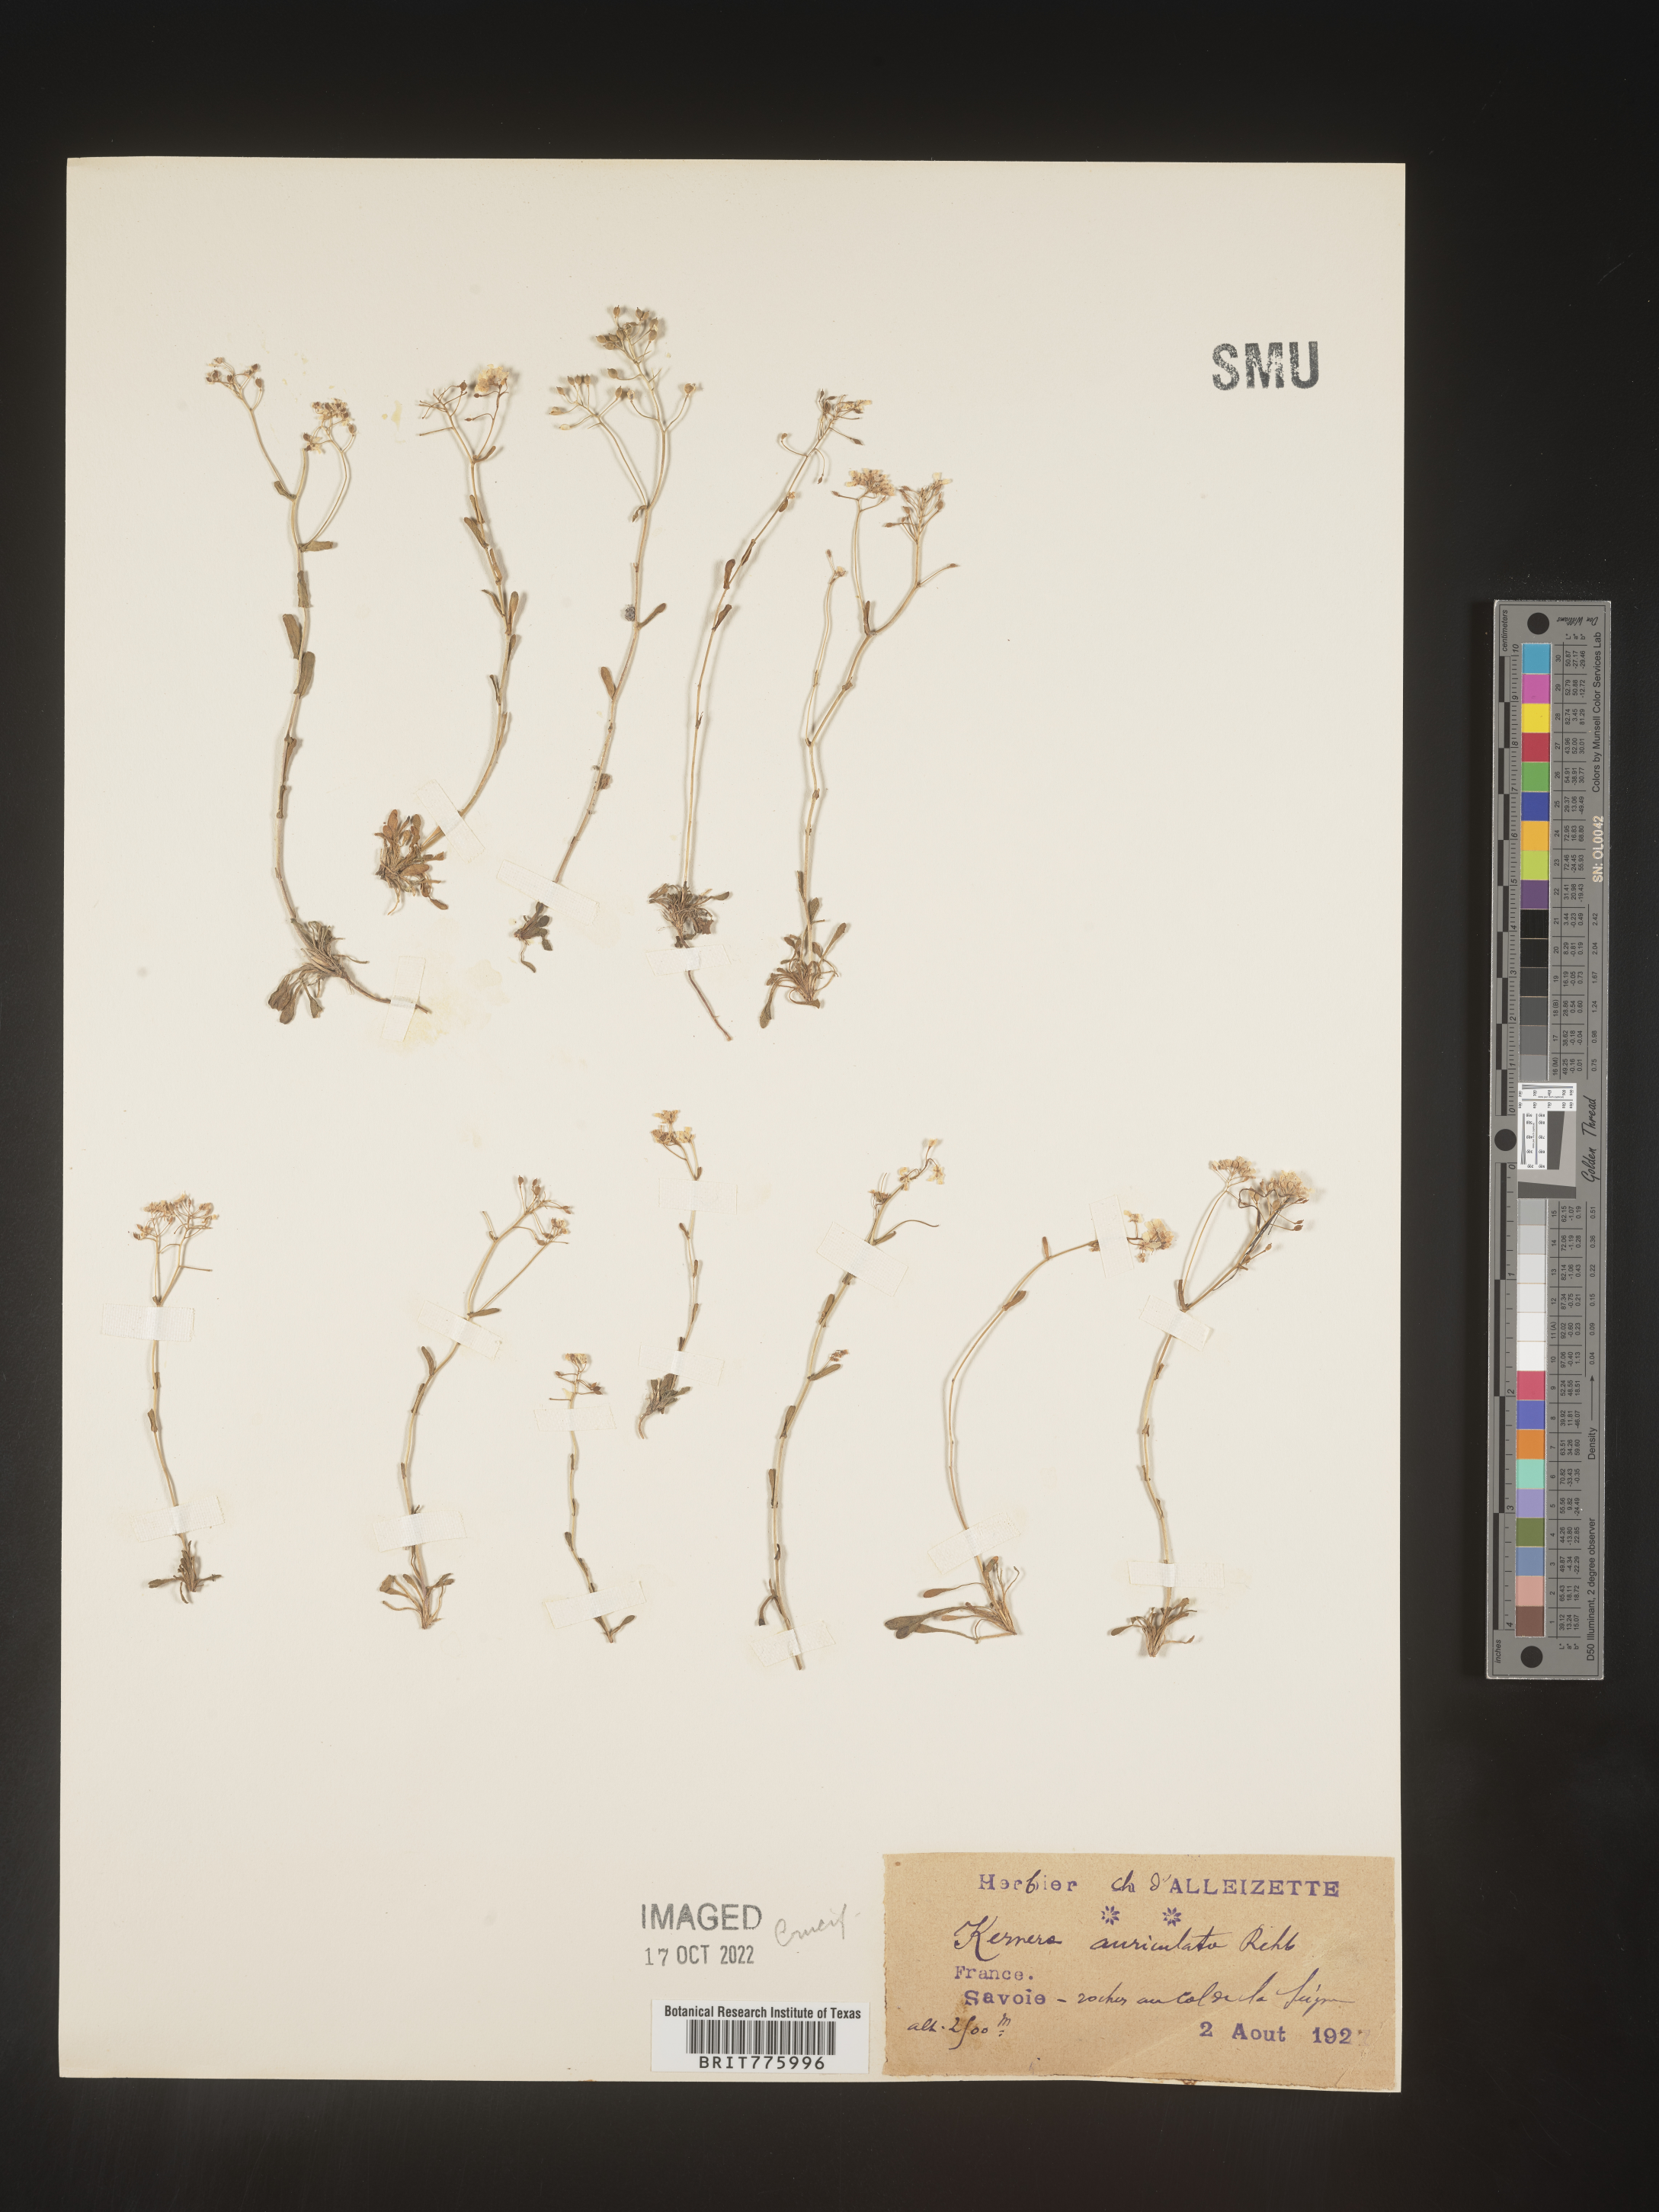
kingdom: Plantae
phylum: Tracheophyta
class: Magnoliopsida
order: Brassicales
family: Brassicaceae
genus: Kernera
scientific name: Kernera
